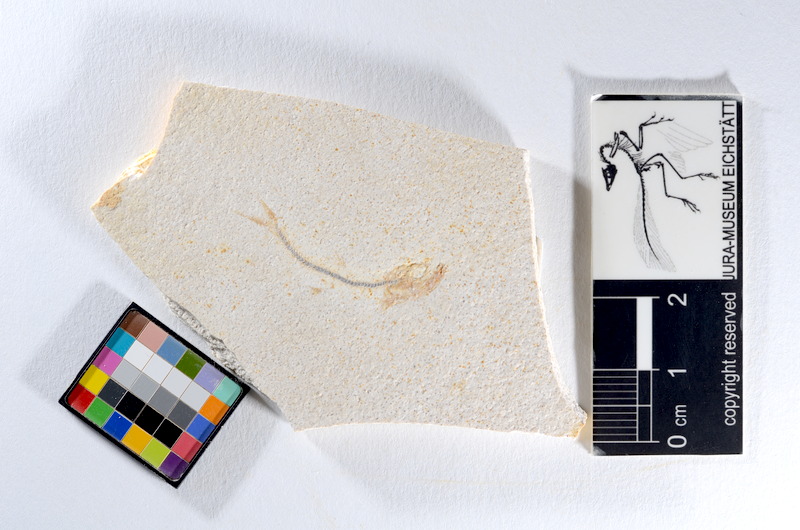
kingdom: Animalia
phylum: Chordata
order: Salmoniformes
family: Orthogonikleithridae
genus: Orthogonikleithrus
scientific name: Orthogonikleithrus hoelli
